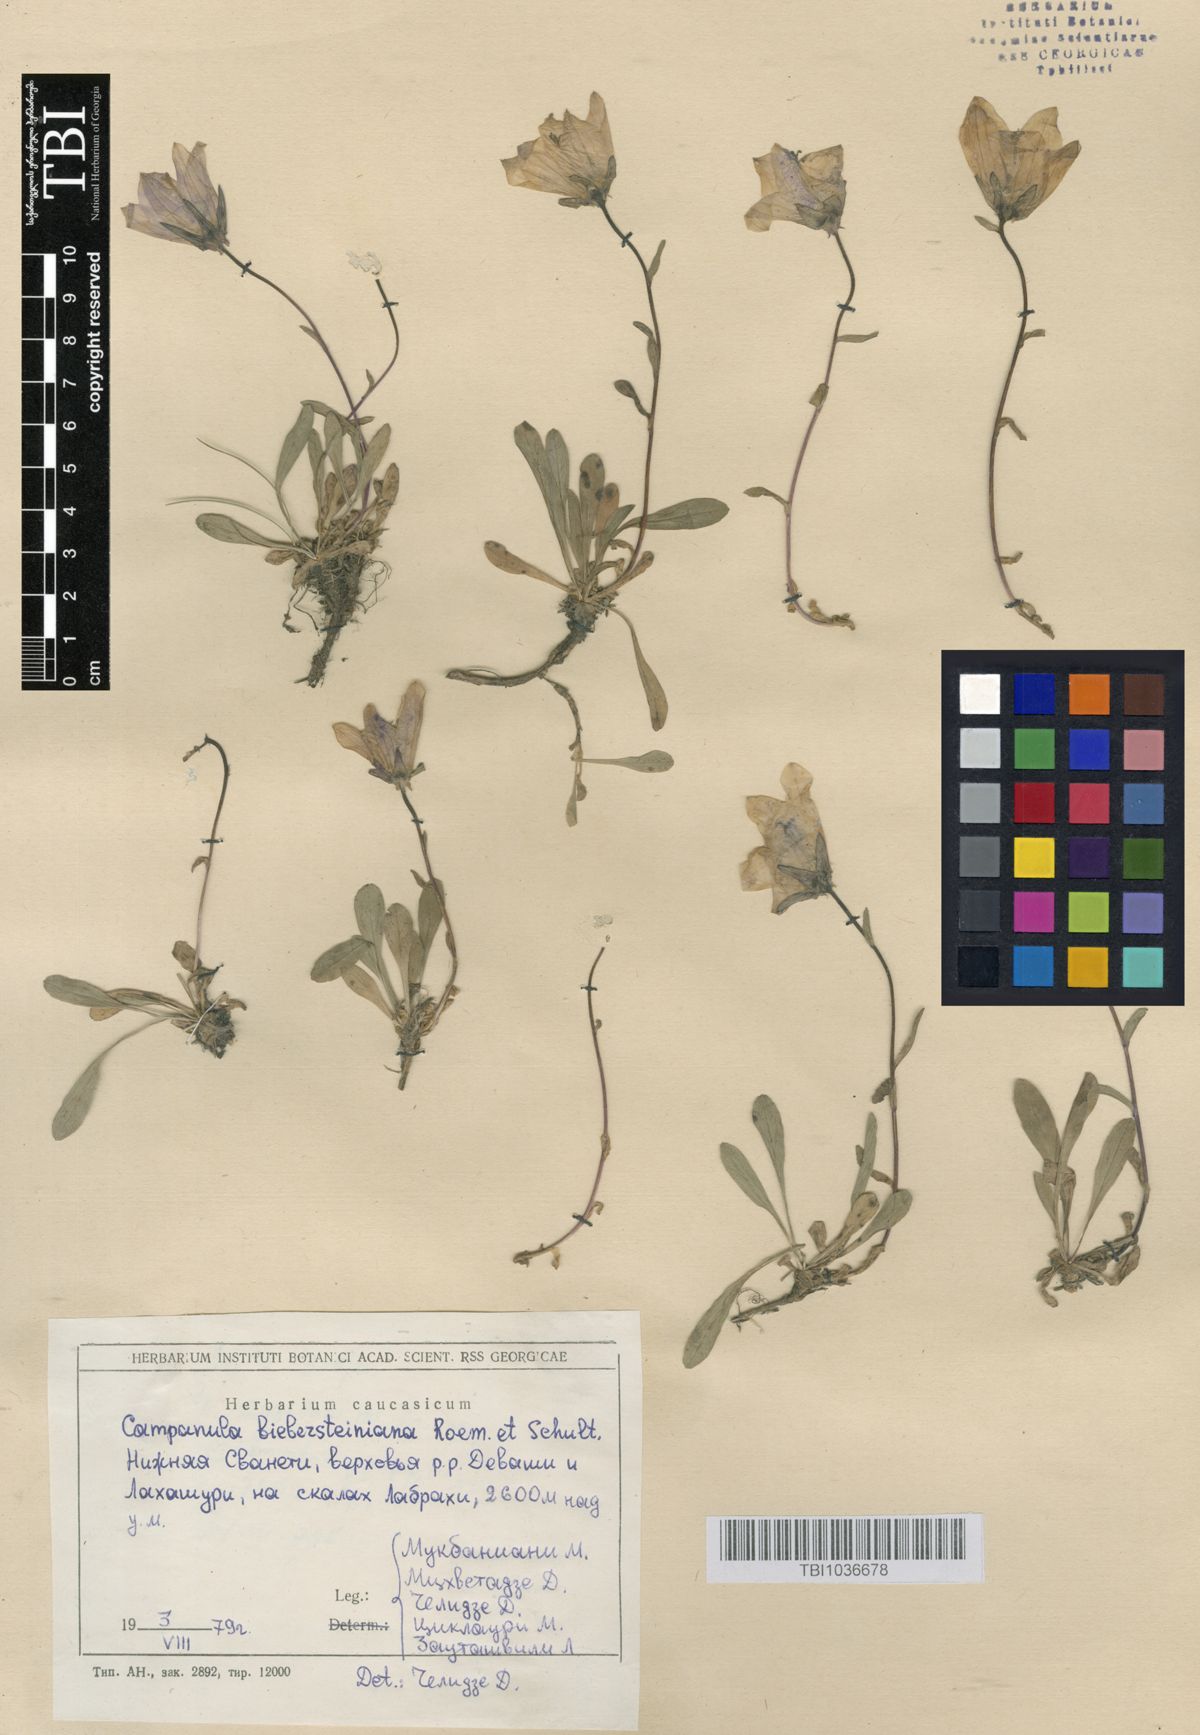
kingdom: Plantae
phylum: Tracheophyta
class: Magnoliopsida
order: Asterales
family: Campanulaceae
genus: Campanula
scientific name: Campanula tridentata
